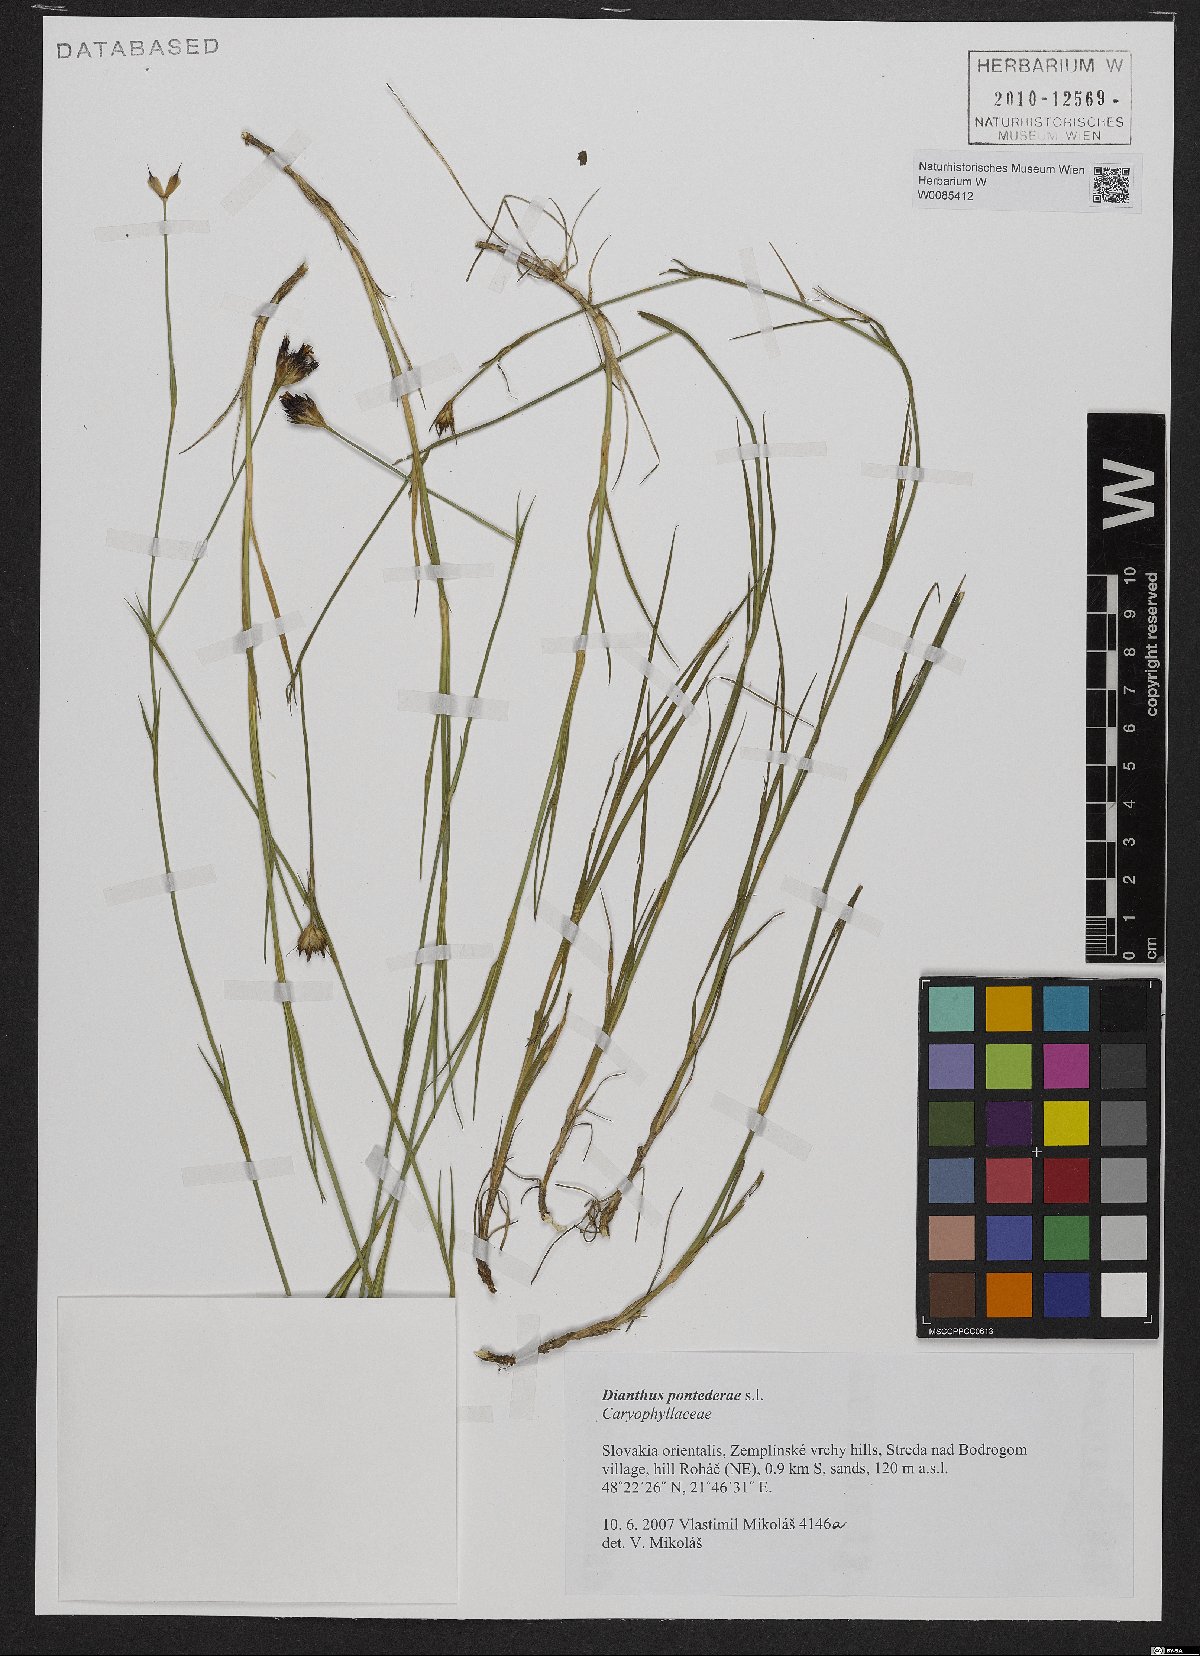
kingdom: Plantae
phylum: Tracheophyta
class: Magnoliopsida
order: Caryophyllales
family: Caryophyllaceae
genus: Dianthus
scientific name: Dianthus pontederae
